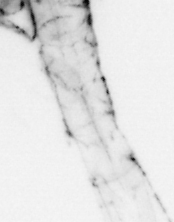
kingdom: Animalia
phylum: Arthropoda
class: Malacostraca
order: Decapoda
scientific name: Decapoda
